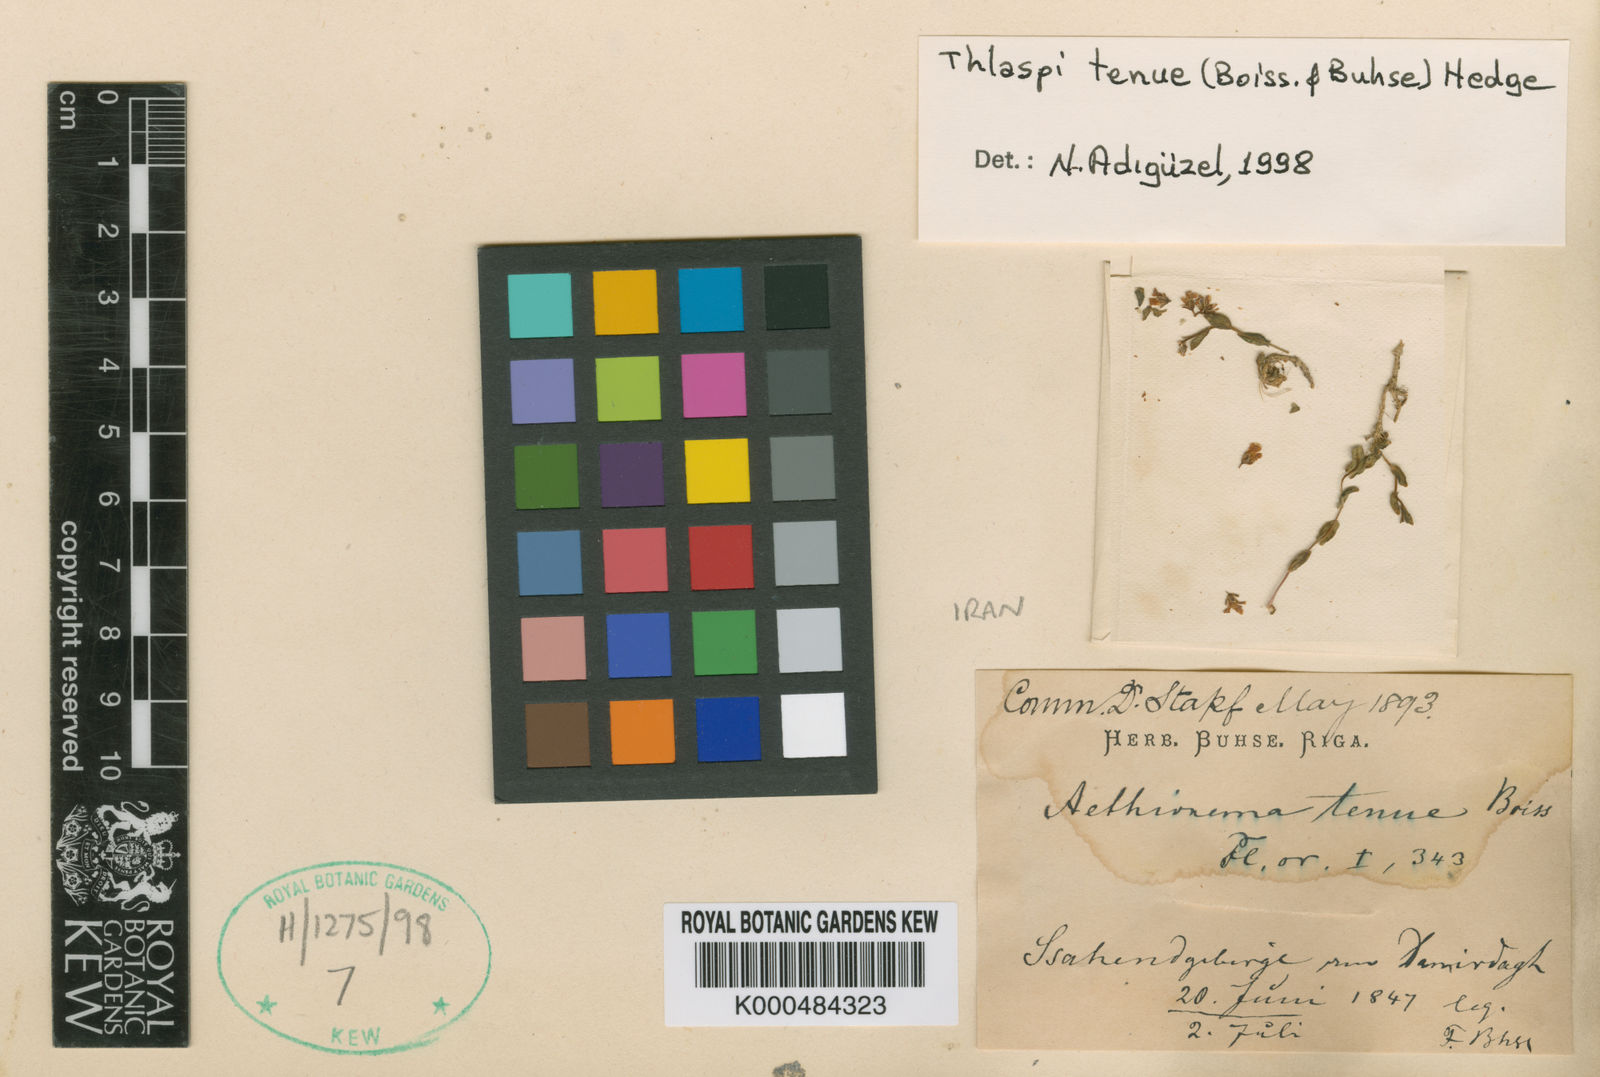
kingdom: Plantae
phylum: Tracheophyta
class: Magnoliopsida
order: Brassicales
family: Brassicaceae
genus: Noccaea
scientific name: Noccaea tenuis
